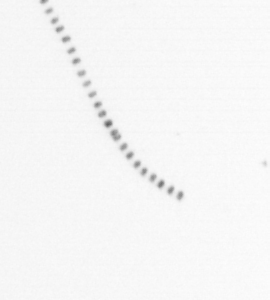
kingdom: Chromista
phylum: Ochrophyta
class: Bacillariophyceae
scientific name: Bacillariophyceae
